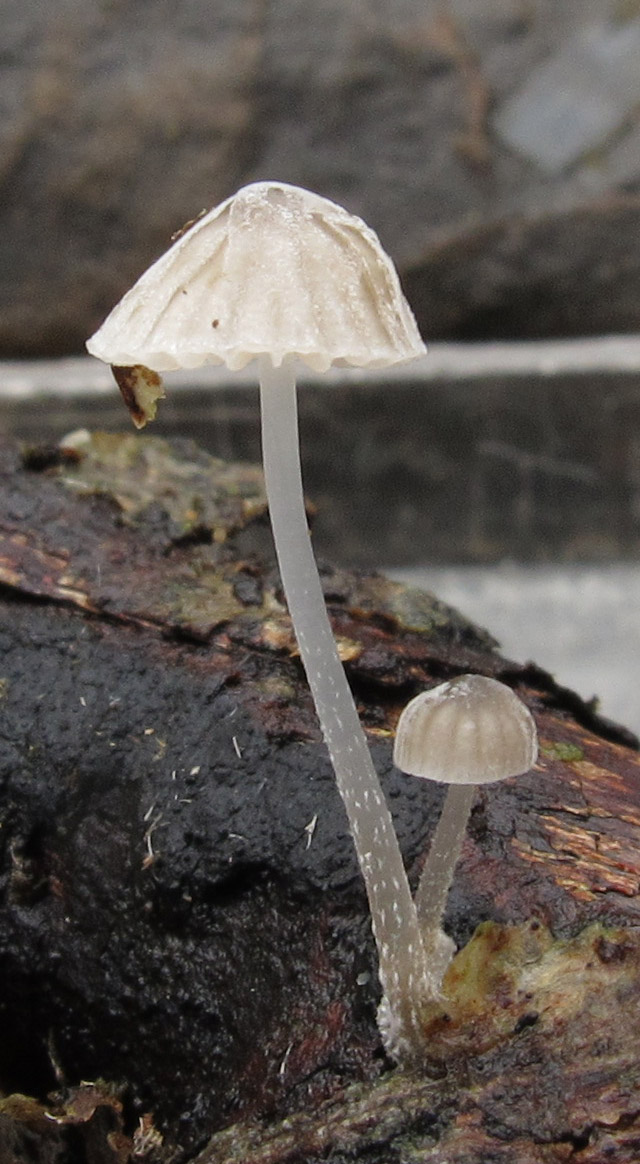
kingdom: Fungi
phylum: Basidiomycota
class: Agaricomycetes
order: Agaricales
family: Mycenaceae
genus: Mycena
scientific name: Mycena clavularis
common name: dunskivet huesvamp
